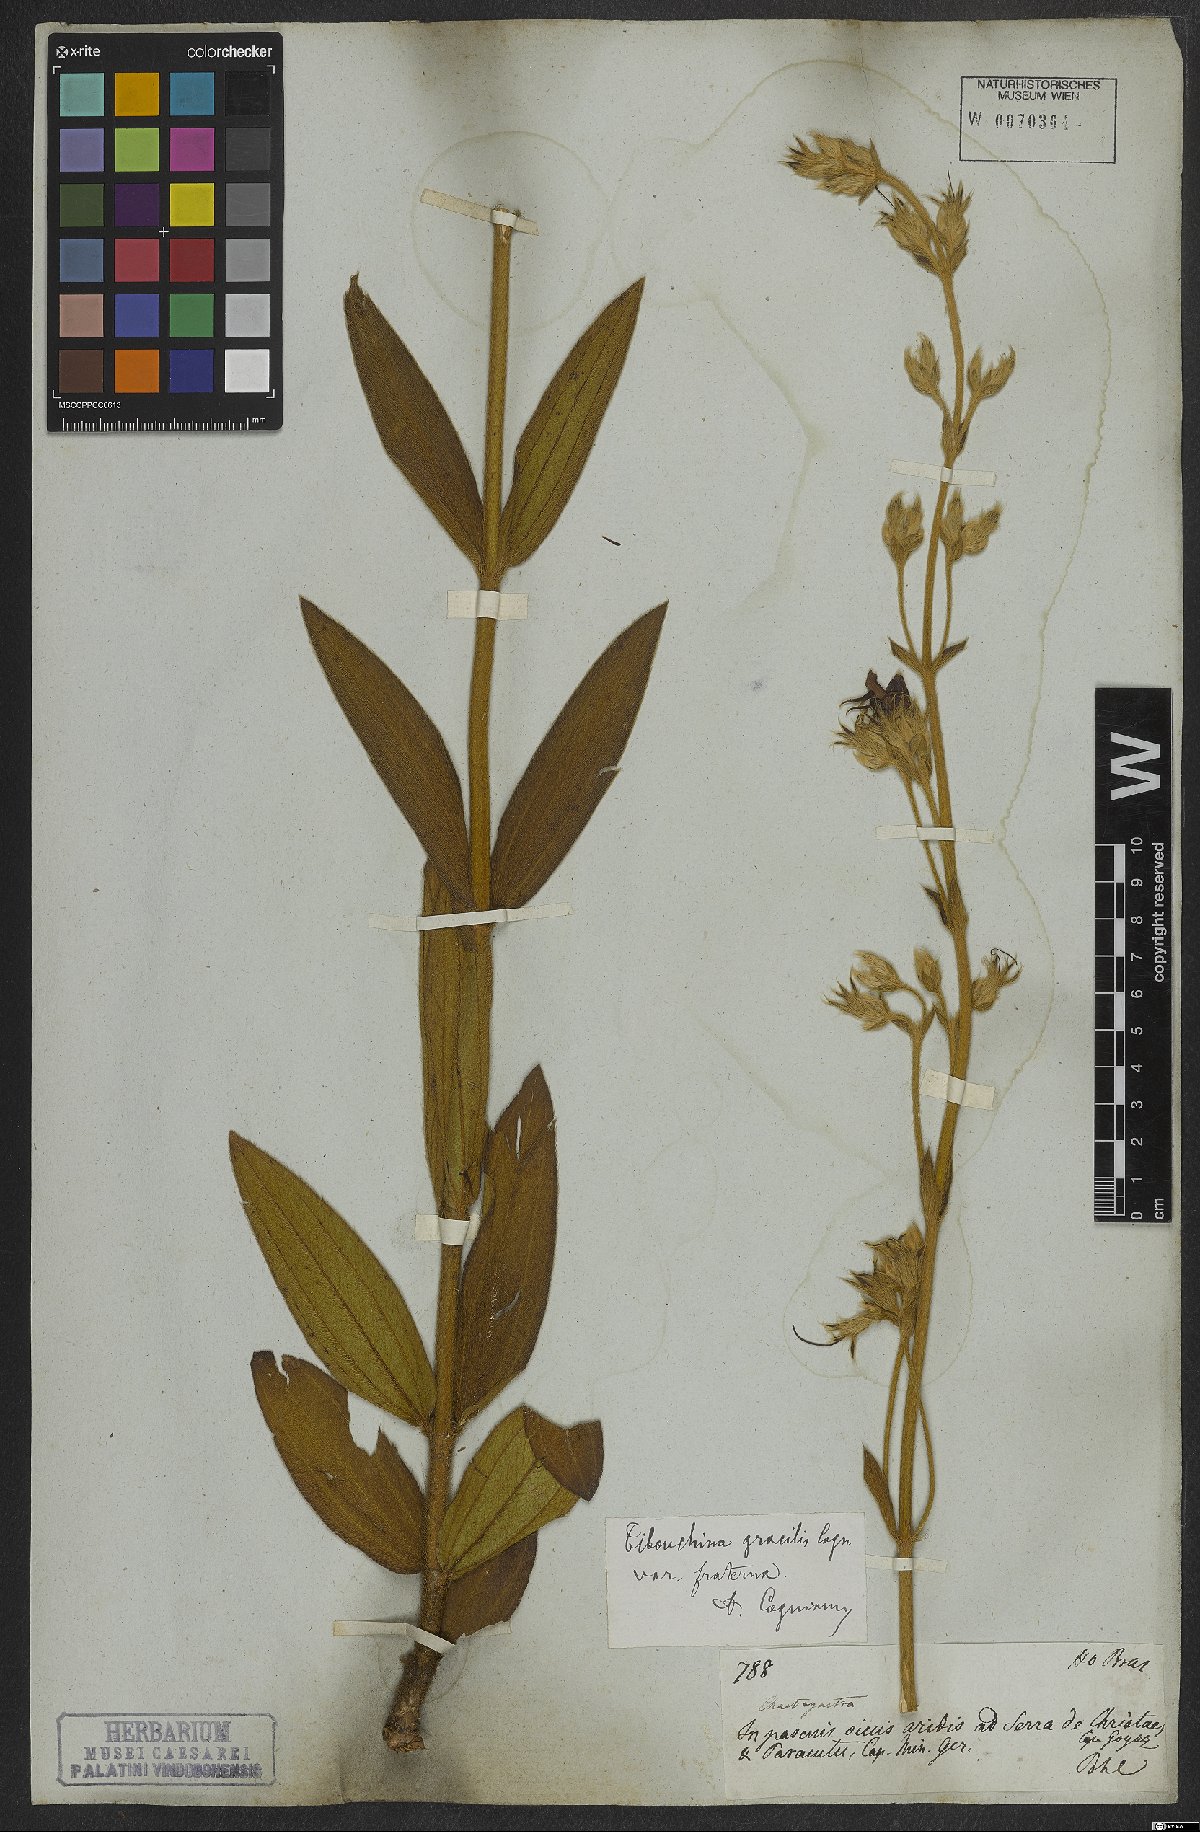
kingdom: Plantae
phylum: Tracheophyta
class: Magnoliopsida
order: Myrtales
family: Melastomataceae
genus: Chaetogastra
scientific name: Chaetogastra gracilis
